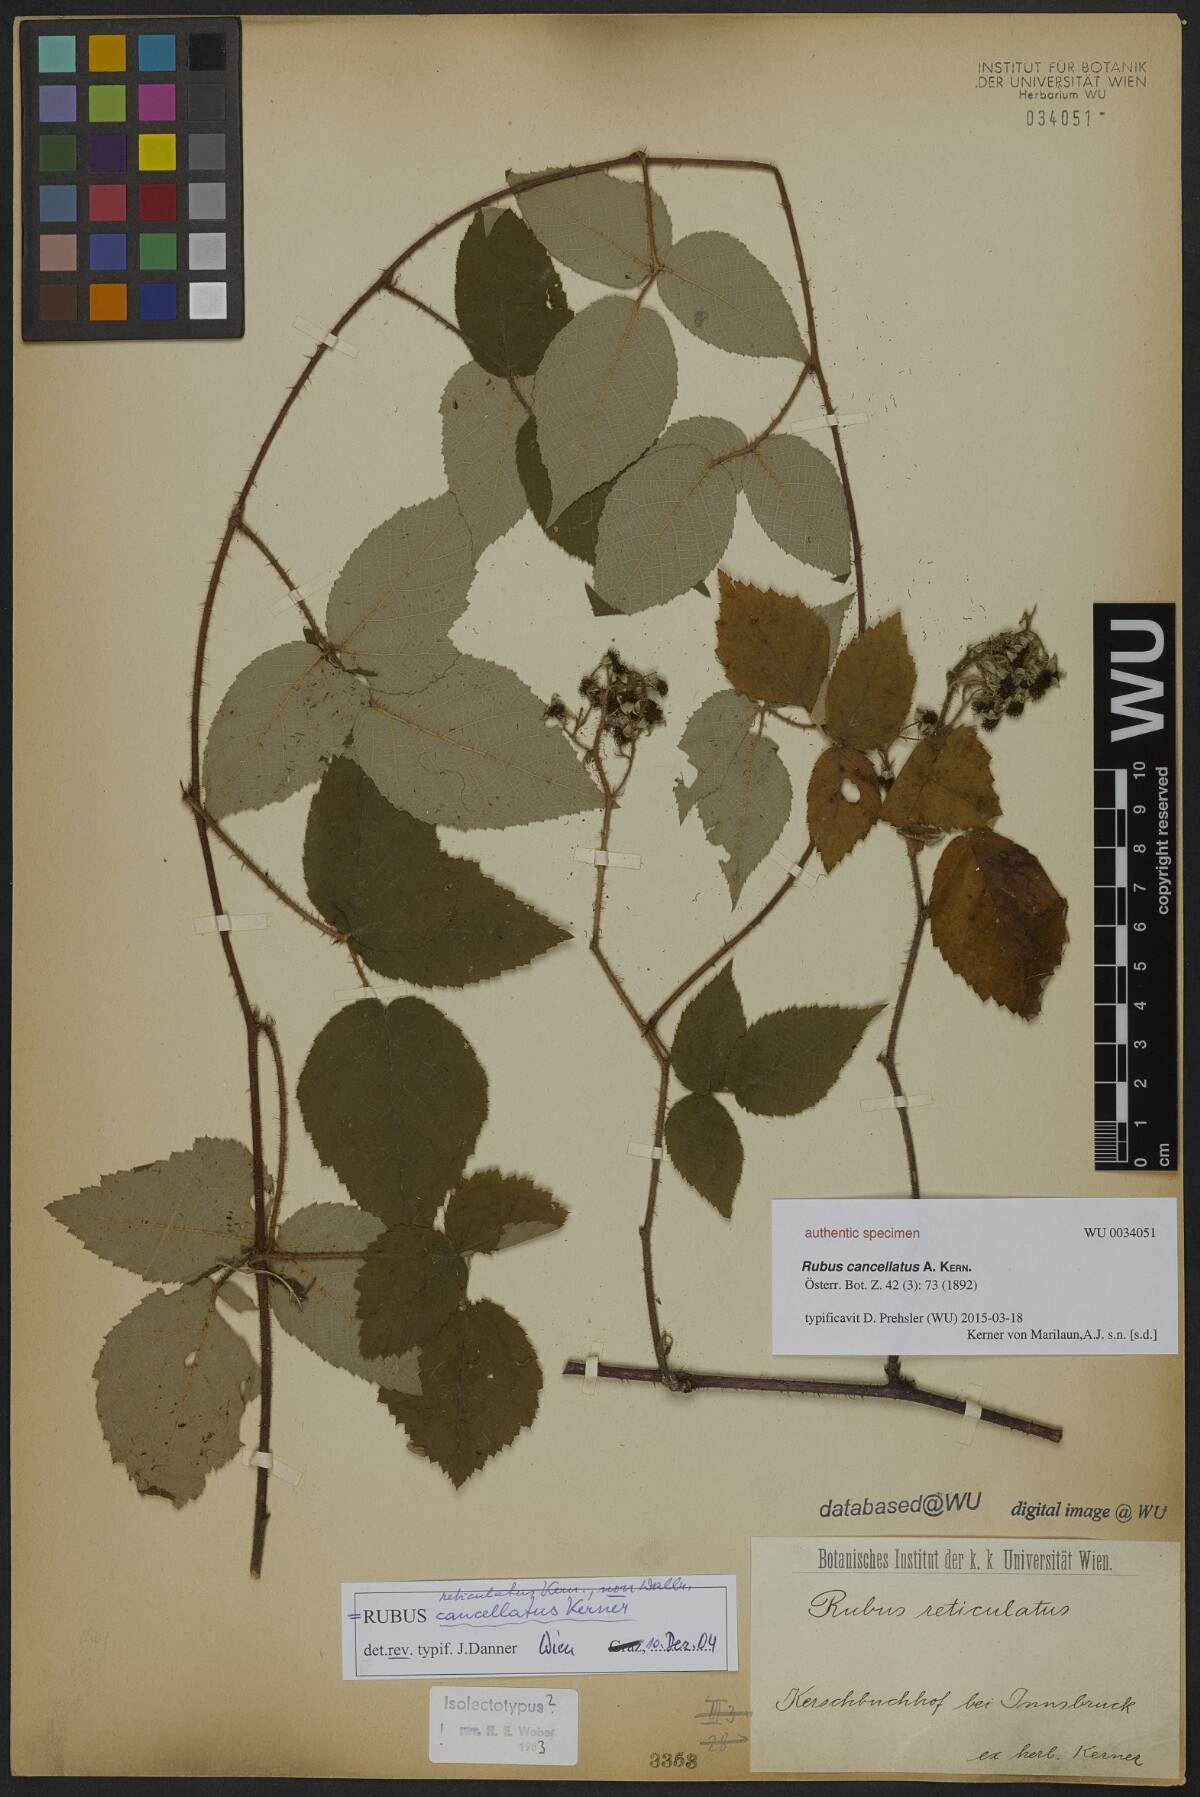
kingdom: Plantae
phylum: Tracheophyta
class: Magnoliopsida
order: Rosales
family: Rosaceae
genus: Rubus
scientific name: Rubus reticulatus
